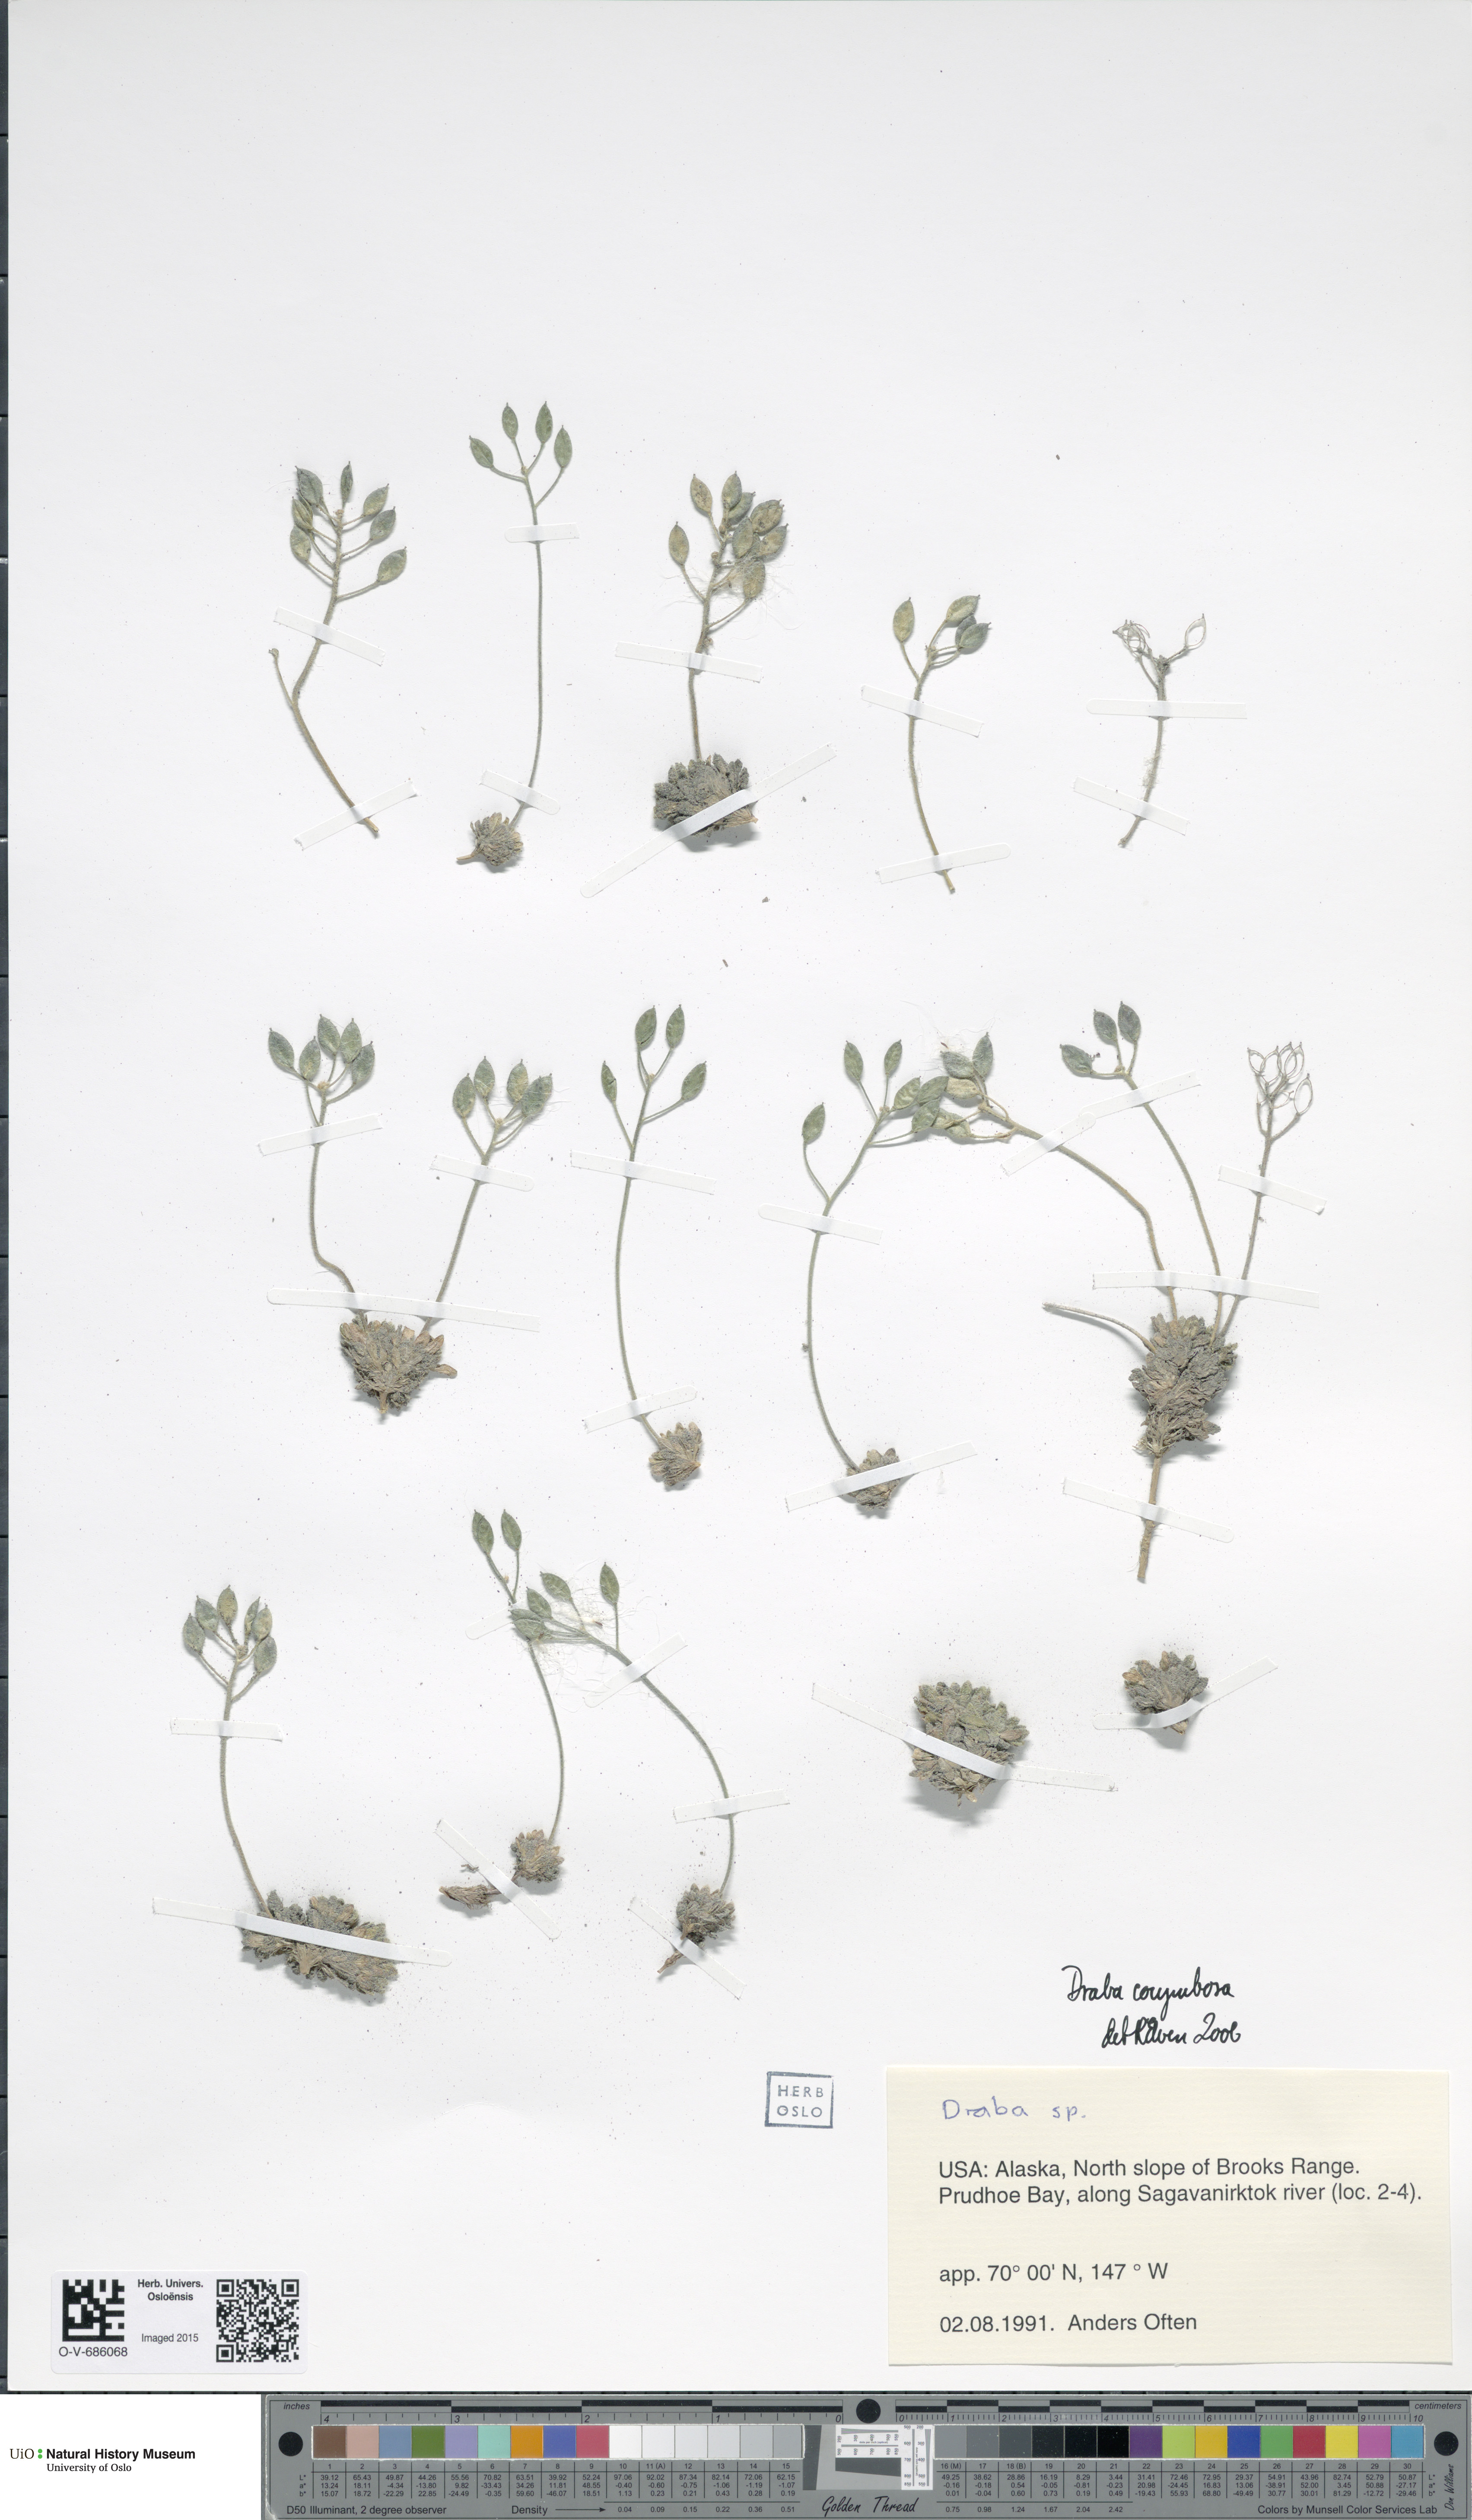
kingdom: Plantae
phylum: Tracheophyta
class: Magnoliopsida
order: Brassicales
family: Brassicaceae
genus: Draba
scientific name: Draba corymbosa
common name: Cushion whitlow-grass
